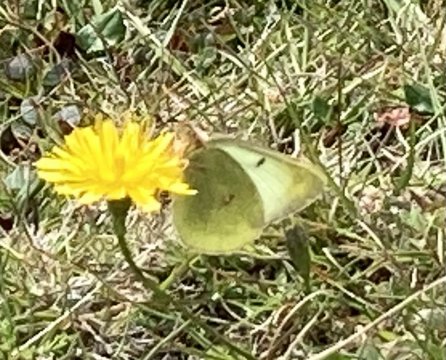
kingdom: Animalia
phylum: Arthropoda
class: Insecta
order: Lepidoptera
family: Pieridae
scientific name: Pieridae
